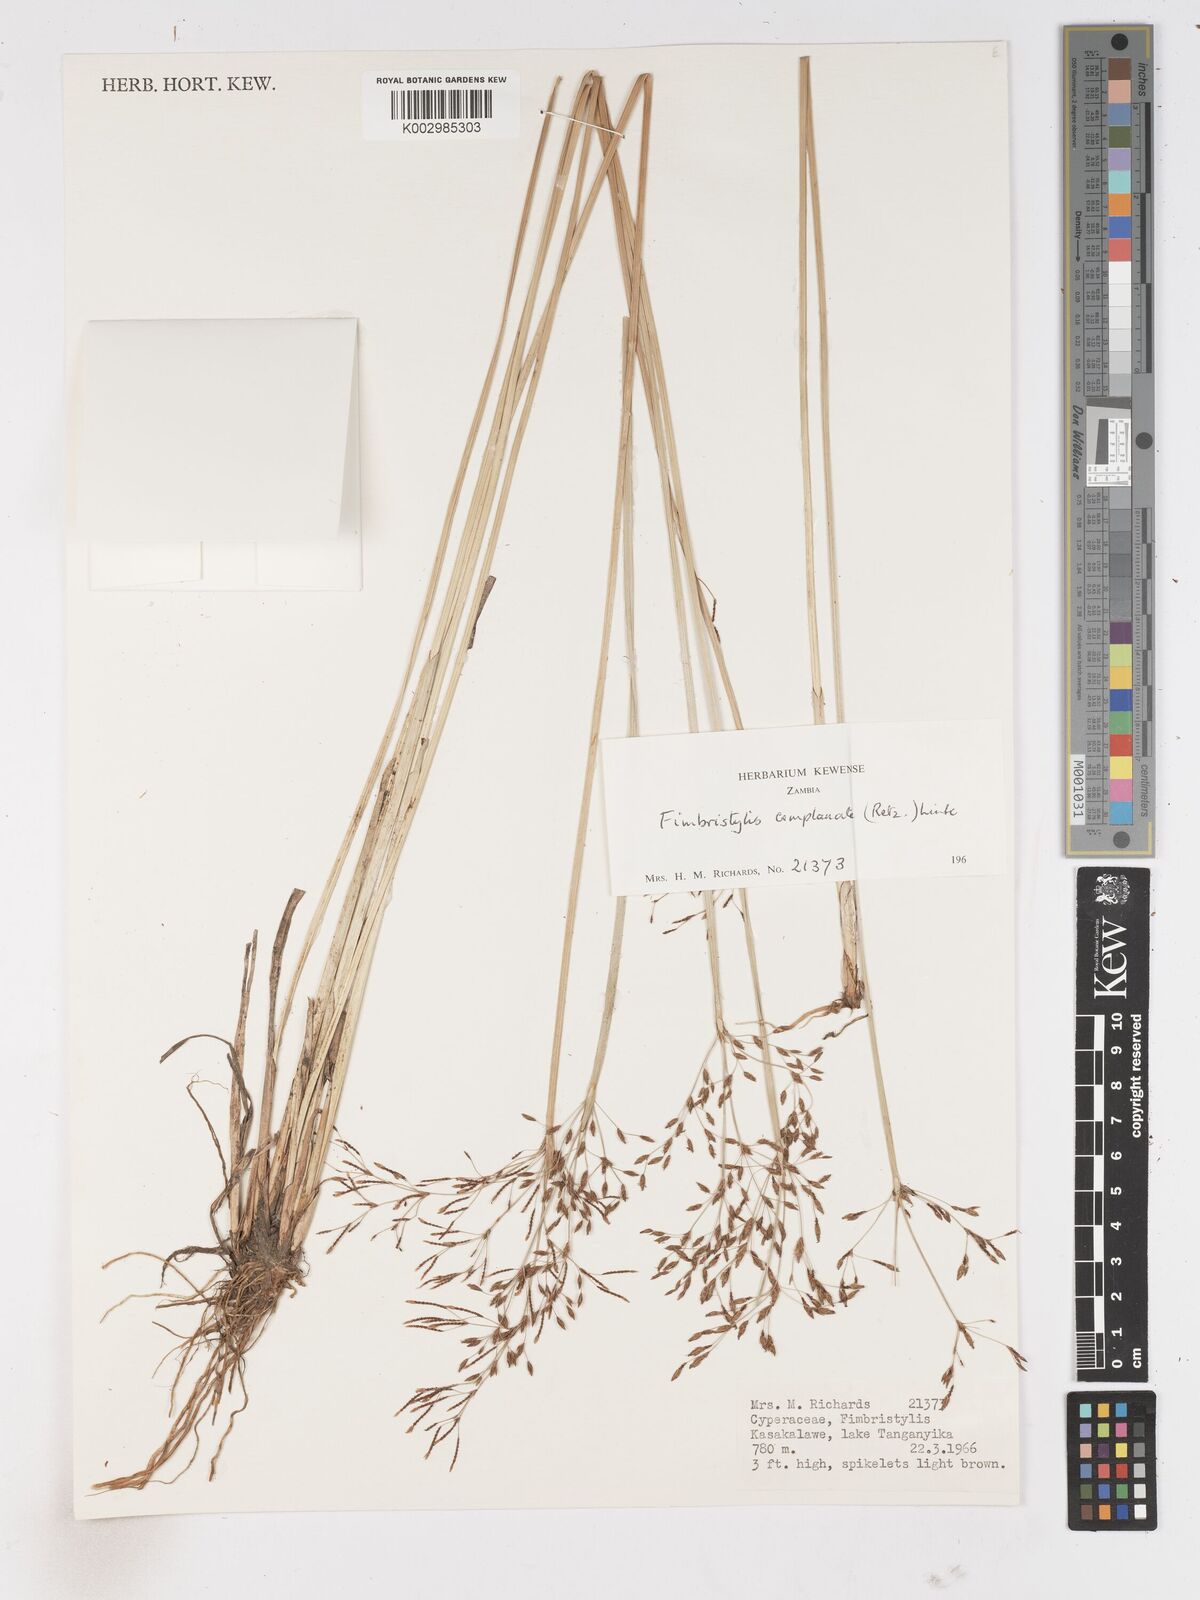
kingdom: Plantae
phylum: Tracheophyta
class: Liliopsida
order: Poales
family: Cyperaceae
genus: Fimbristylis
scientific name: Fimbristylis complanata
